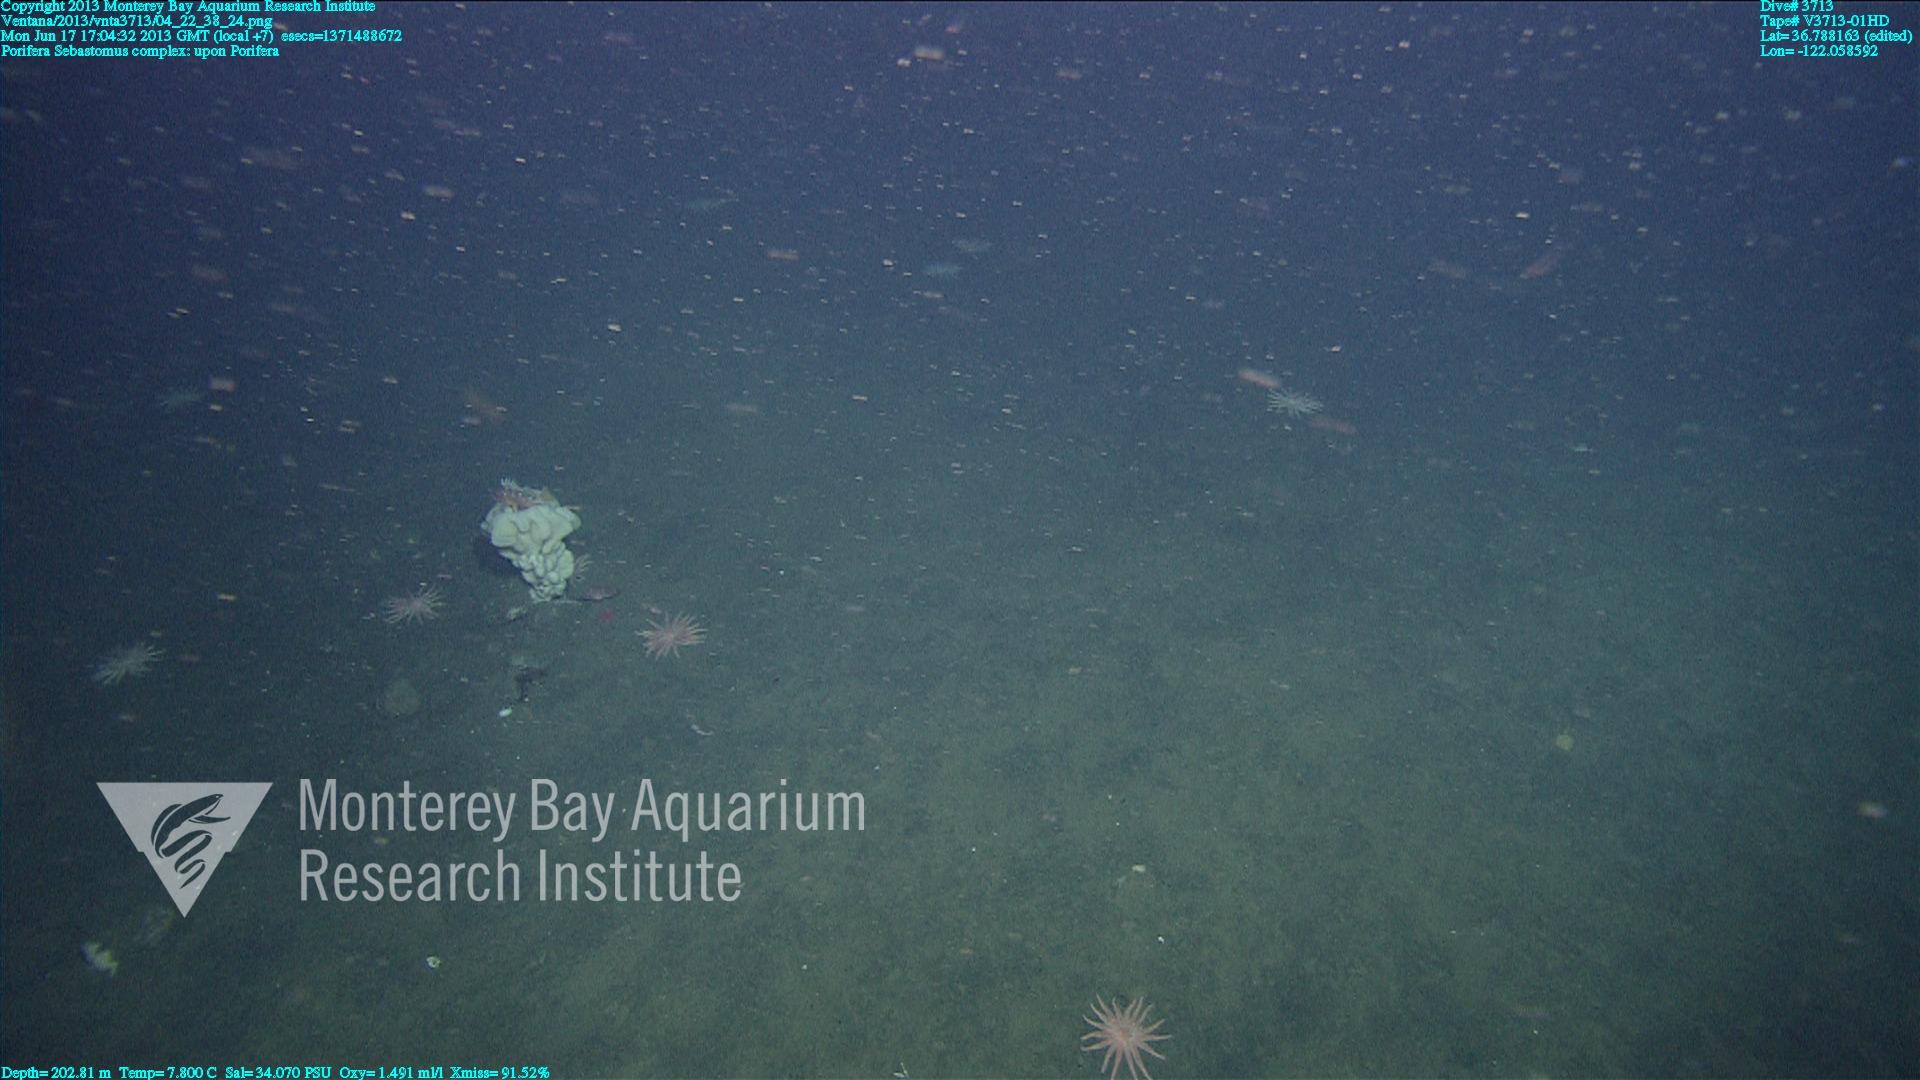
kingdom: Animalia
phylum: Porifera
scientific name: Porifera
